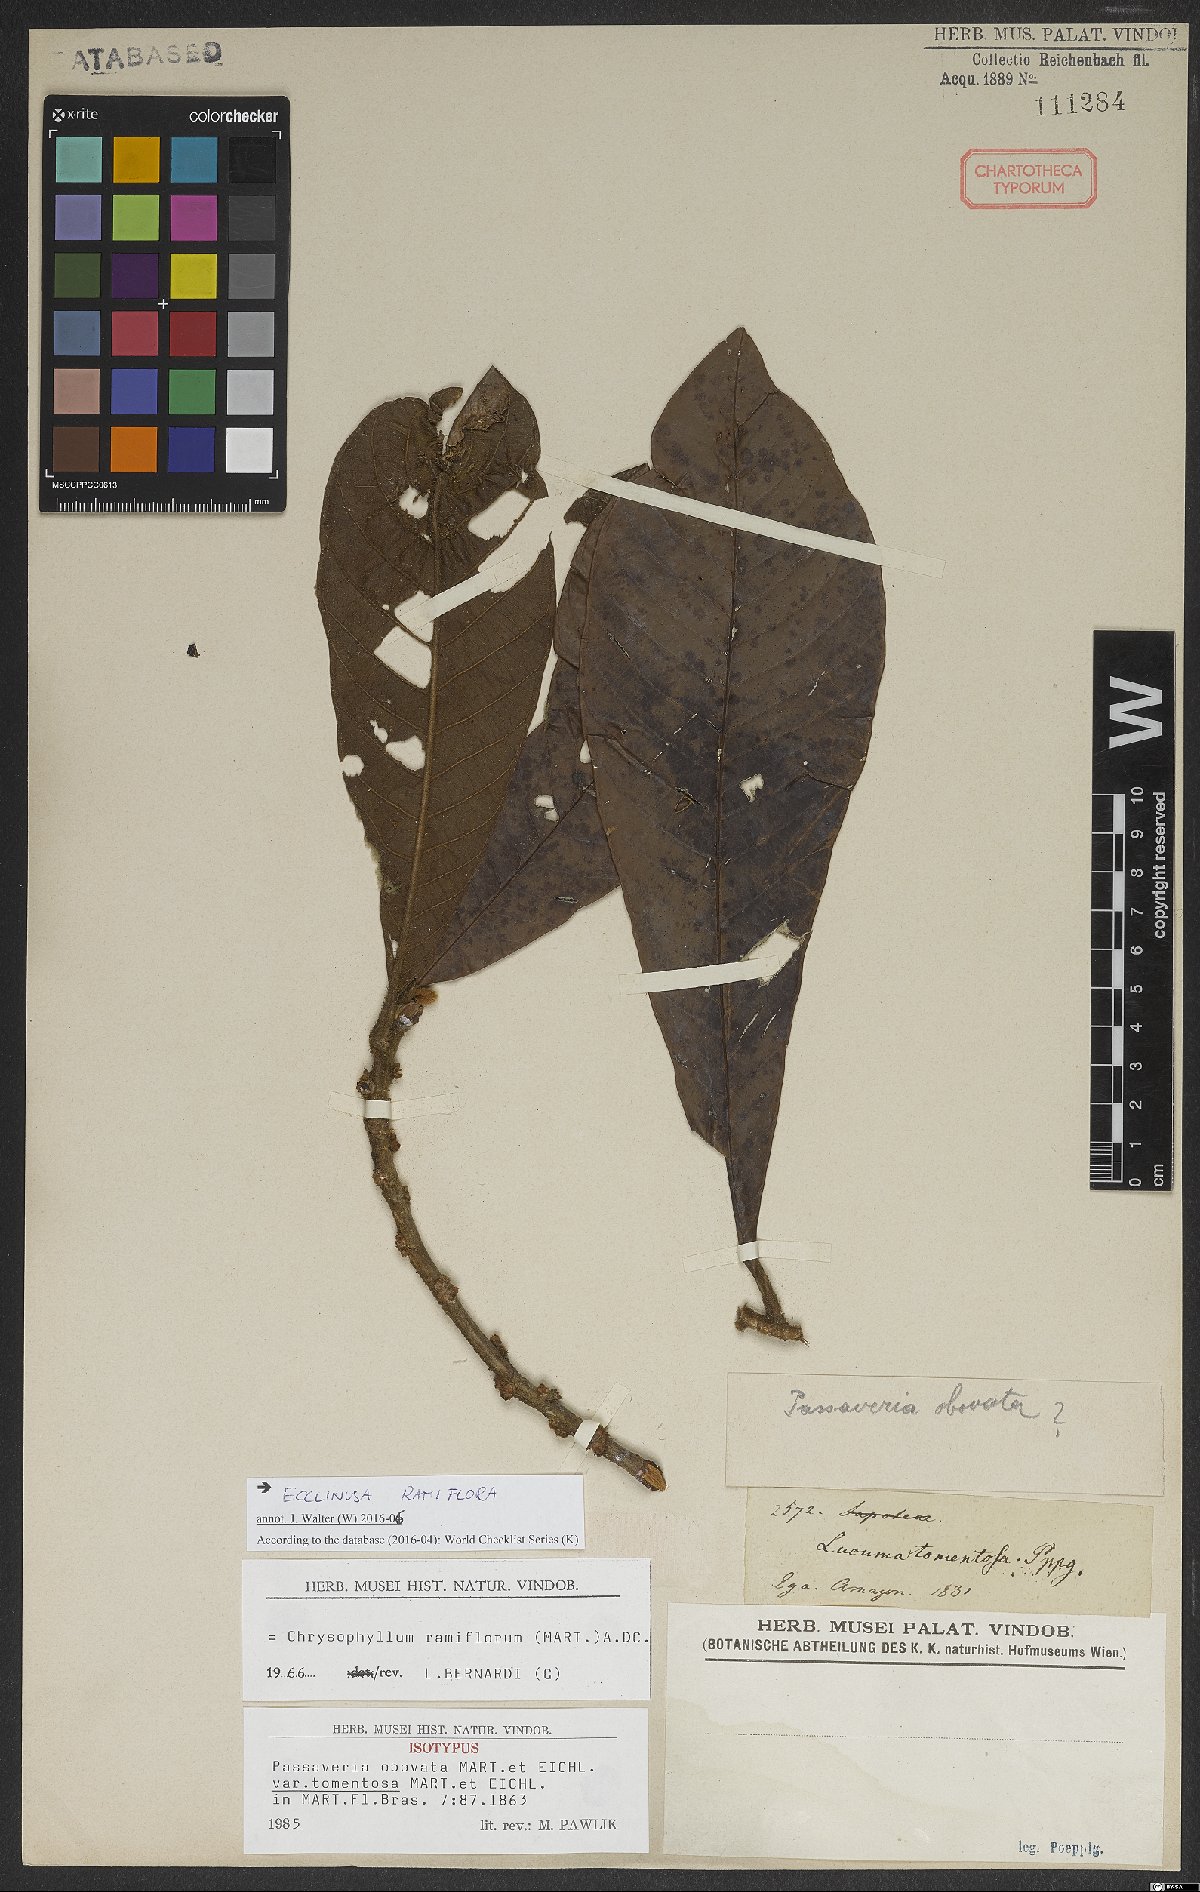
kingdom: Plantae
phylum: Tracheophyta
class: Magnoliopsida
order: Ericales
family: Sapotaceae
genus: Ecclinusa
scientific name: Ecclinusa ramiflora
